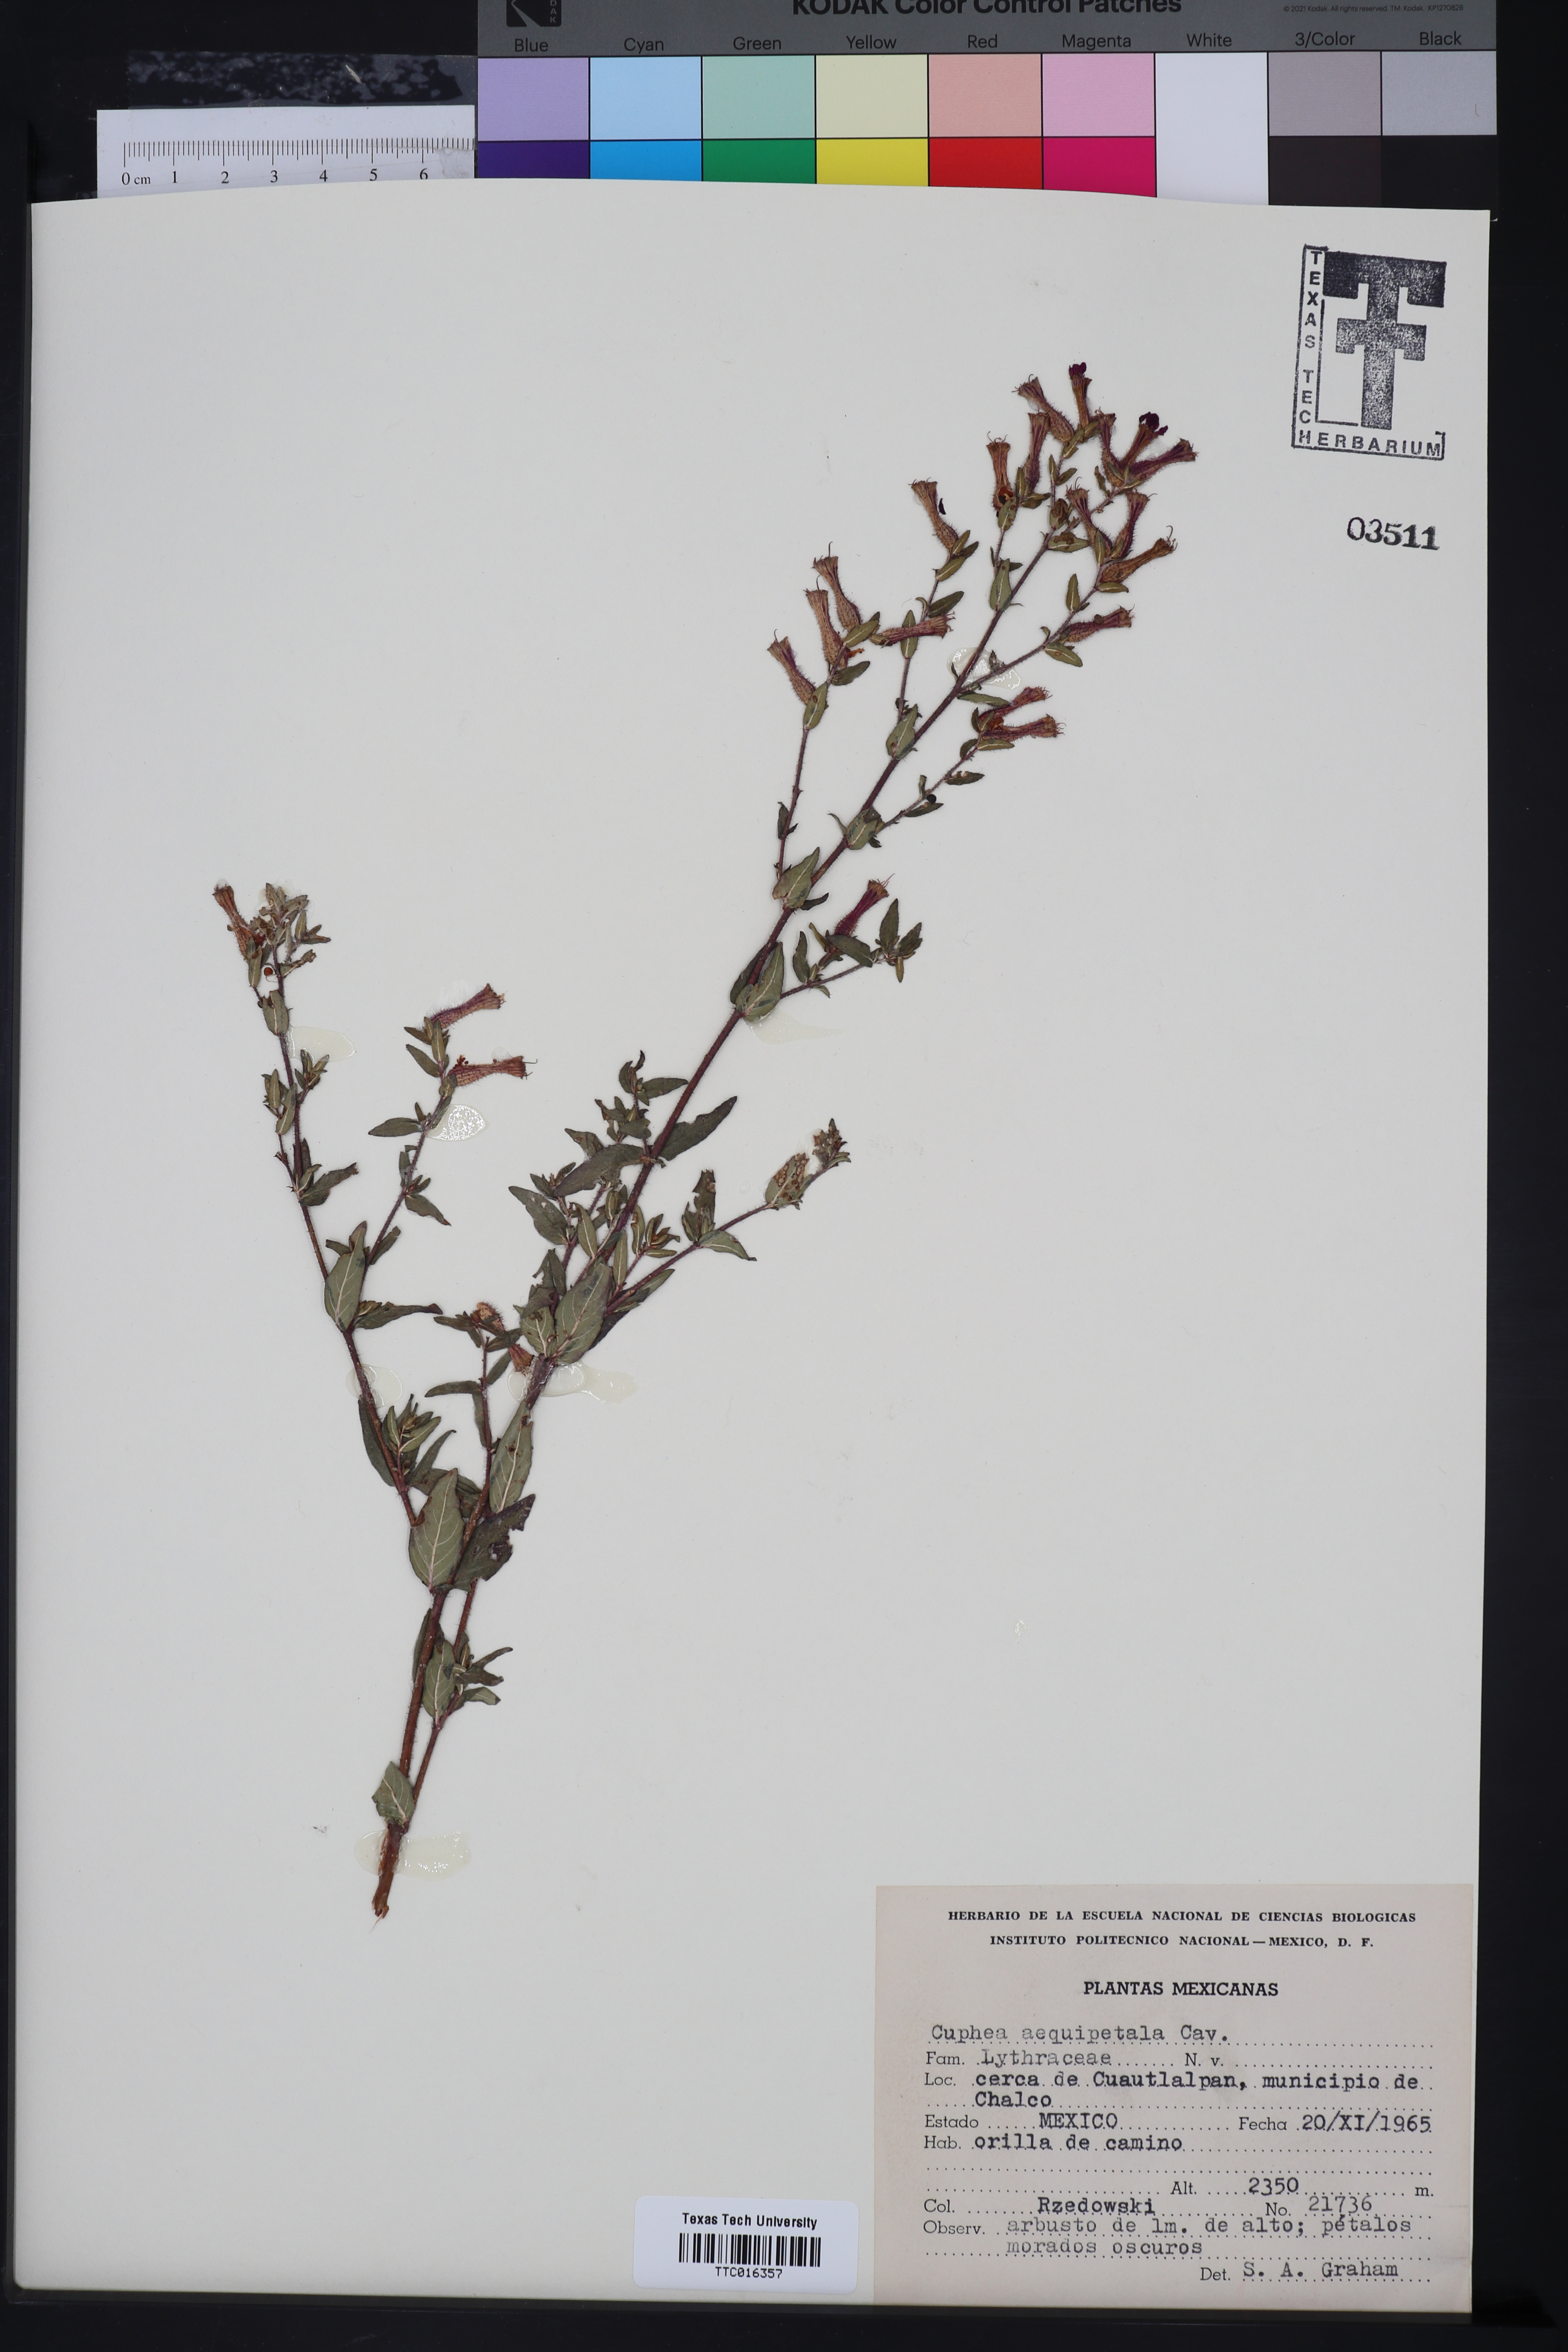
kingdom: Plantae
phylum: Tracheophyta
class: Magnoliopsida
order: Myrtales
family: Lythraceae
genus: Cuphea
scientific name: Cuphea nitidula
